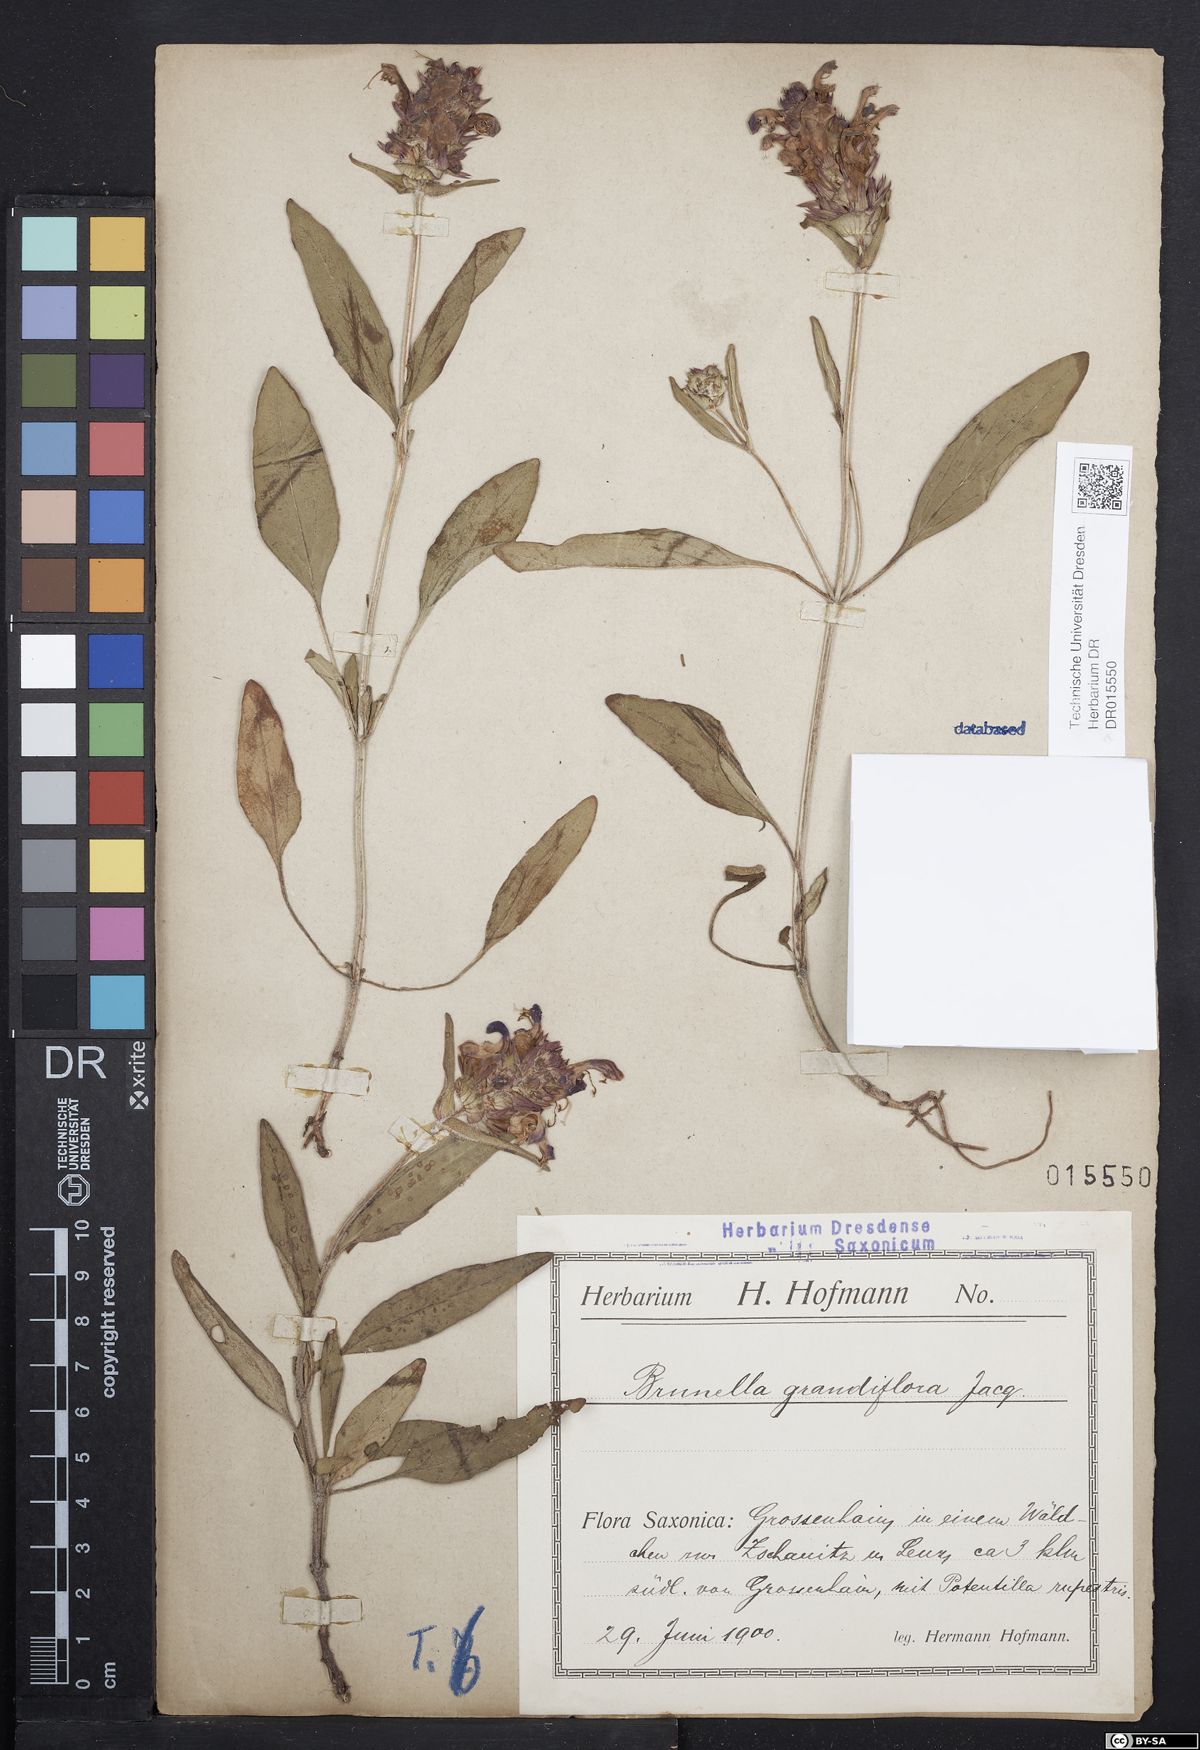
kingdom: Plantae
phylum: Tracheophyta
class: Magnoliopsida
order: Lamiales
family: Lamiaceae
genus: Prunella
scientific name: Prunella grandiflora
